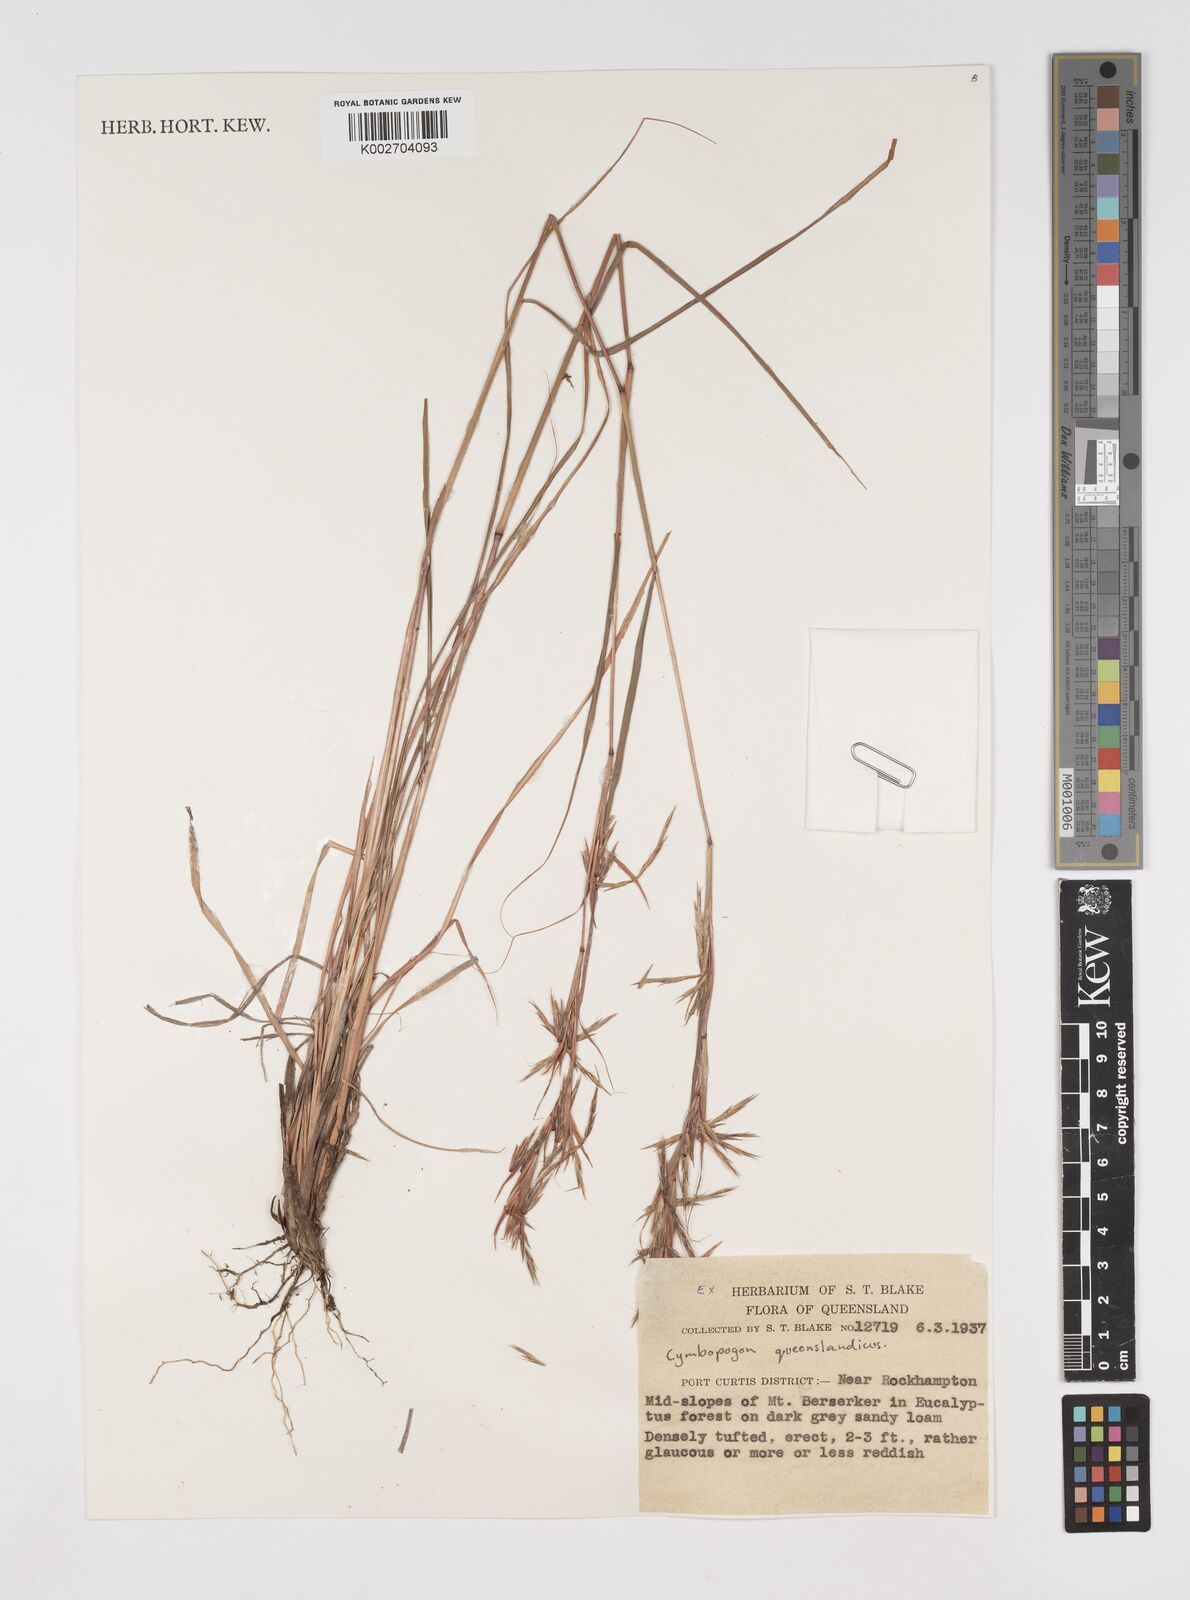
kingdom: Plantae
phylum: Tracheophyta
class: Liliopsida
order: Poales
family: Poaceae
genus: Cymbopogon
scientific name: Cymbopogon queenslandicus
